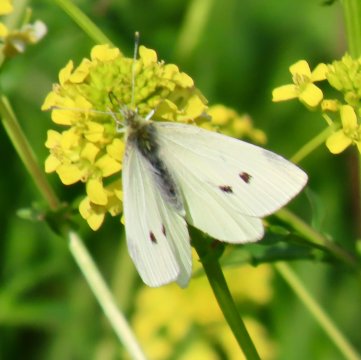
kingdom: Animalia
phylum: Arthropoda
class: Insecta
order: Lepidoptera
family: Pieridae
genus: Pieris
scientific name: Pieris rapae
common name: Cabbage White
